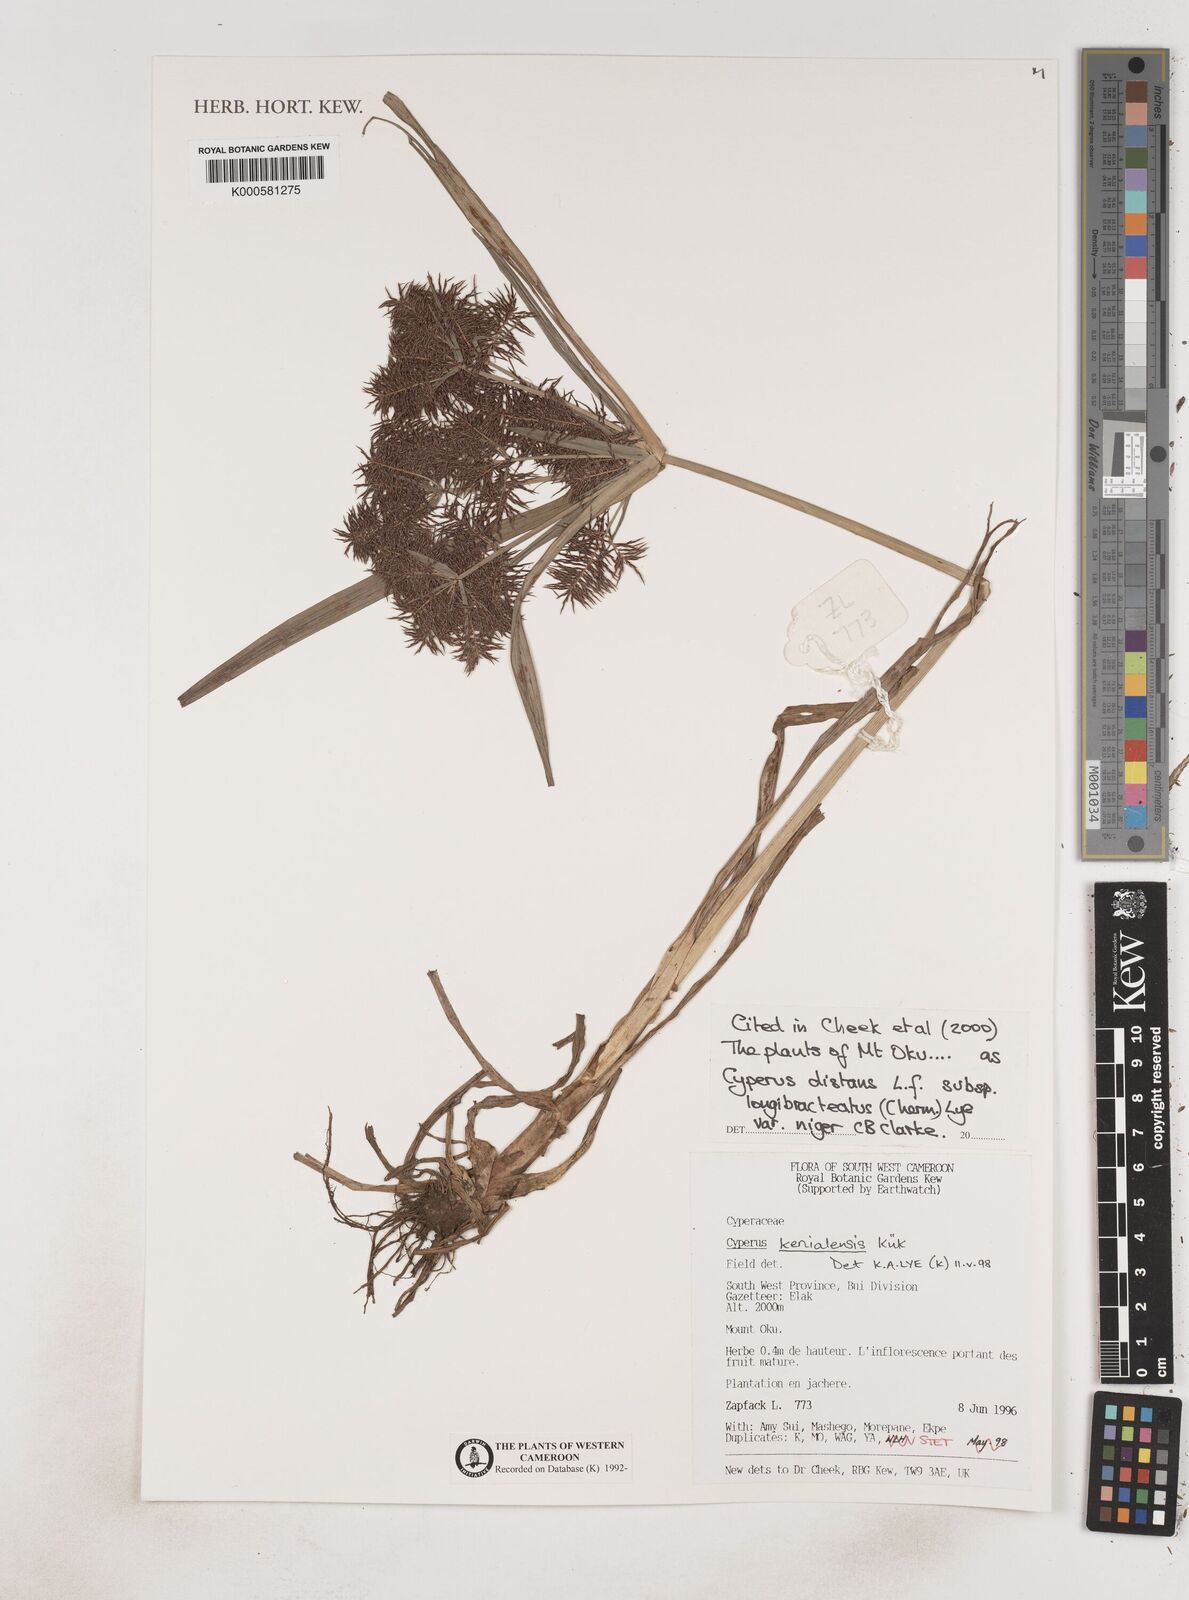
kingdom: Plantae
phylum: Tracheophyta
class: Liliopsida
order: Poales
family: Cyperaceae
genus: Cyperus
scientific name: Cyperus distans
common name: Slender cyperus
